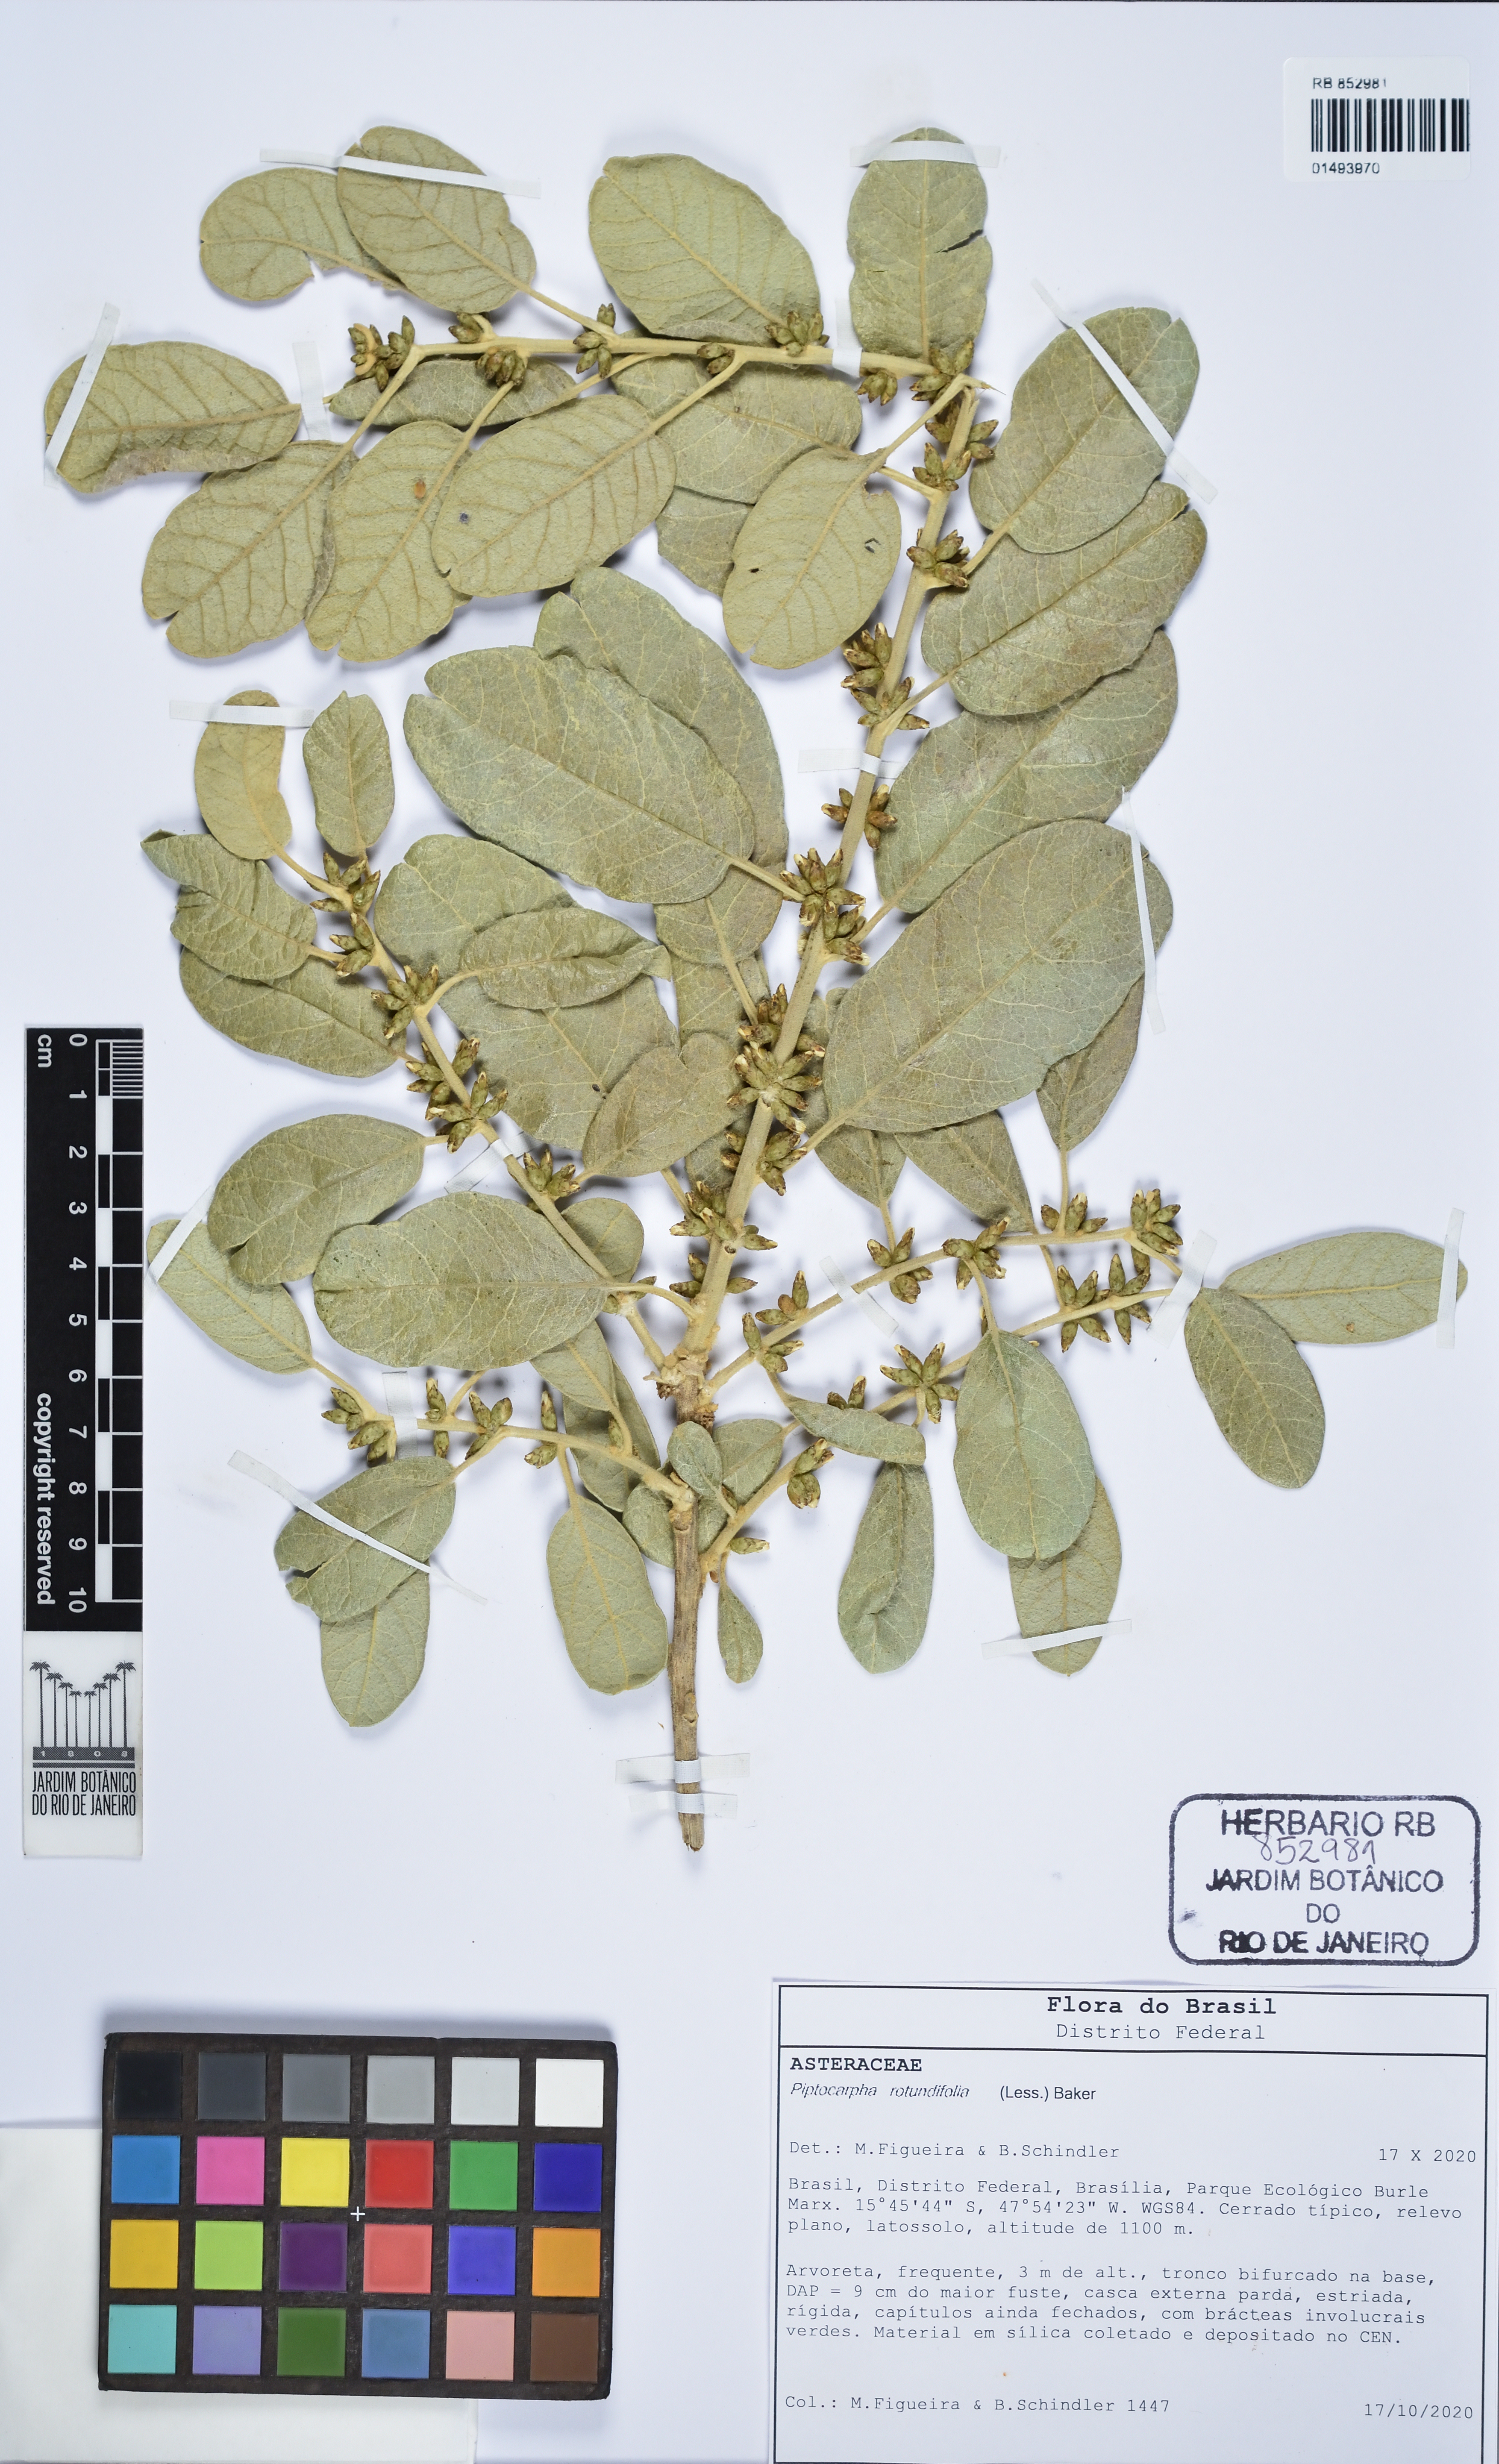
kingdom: Plantae
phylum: Tracheophyta
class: Magnoliopsida
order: Asterales
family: Asteraceae
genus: Piptocarpha
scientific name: Piptocarpha rotundifolia
